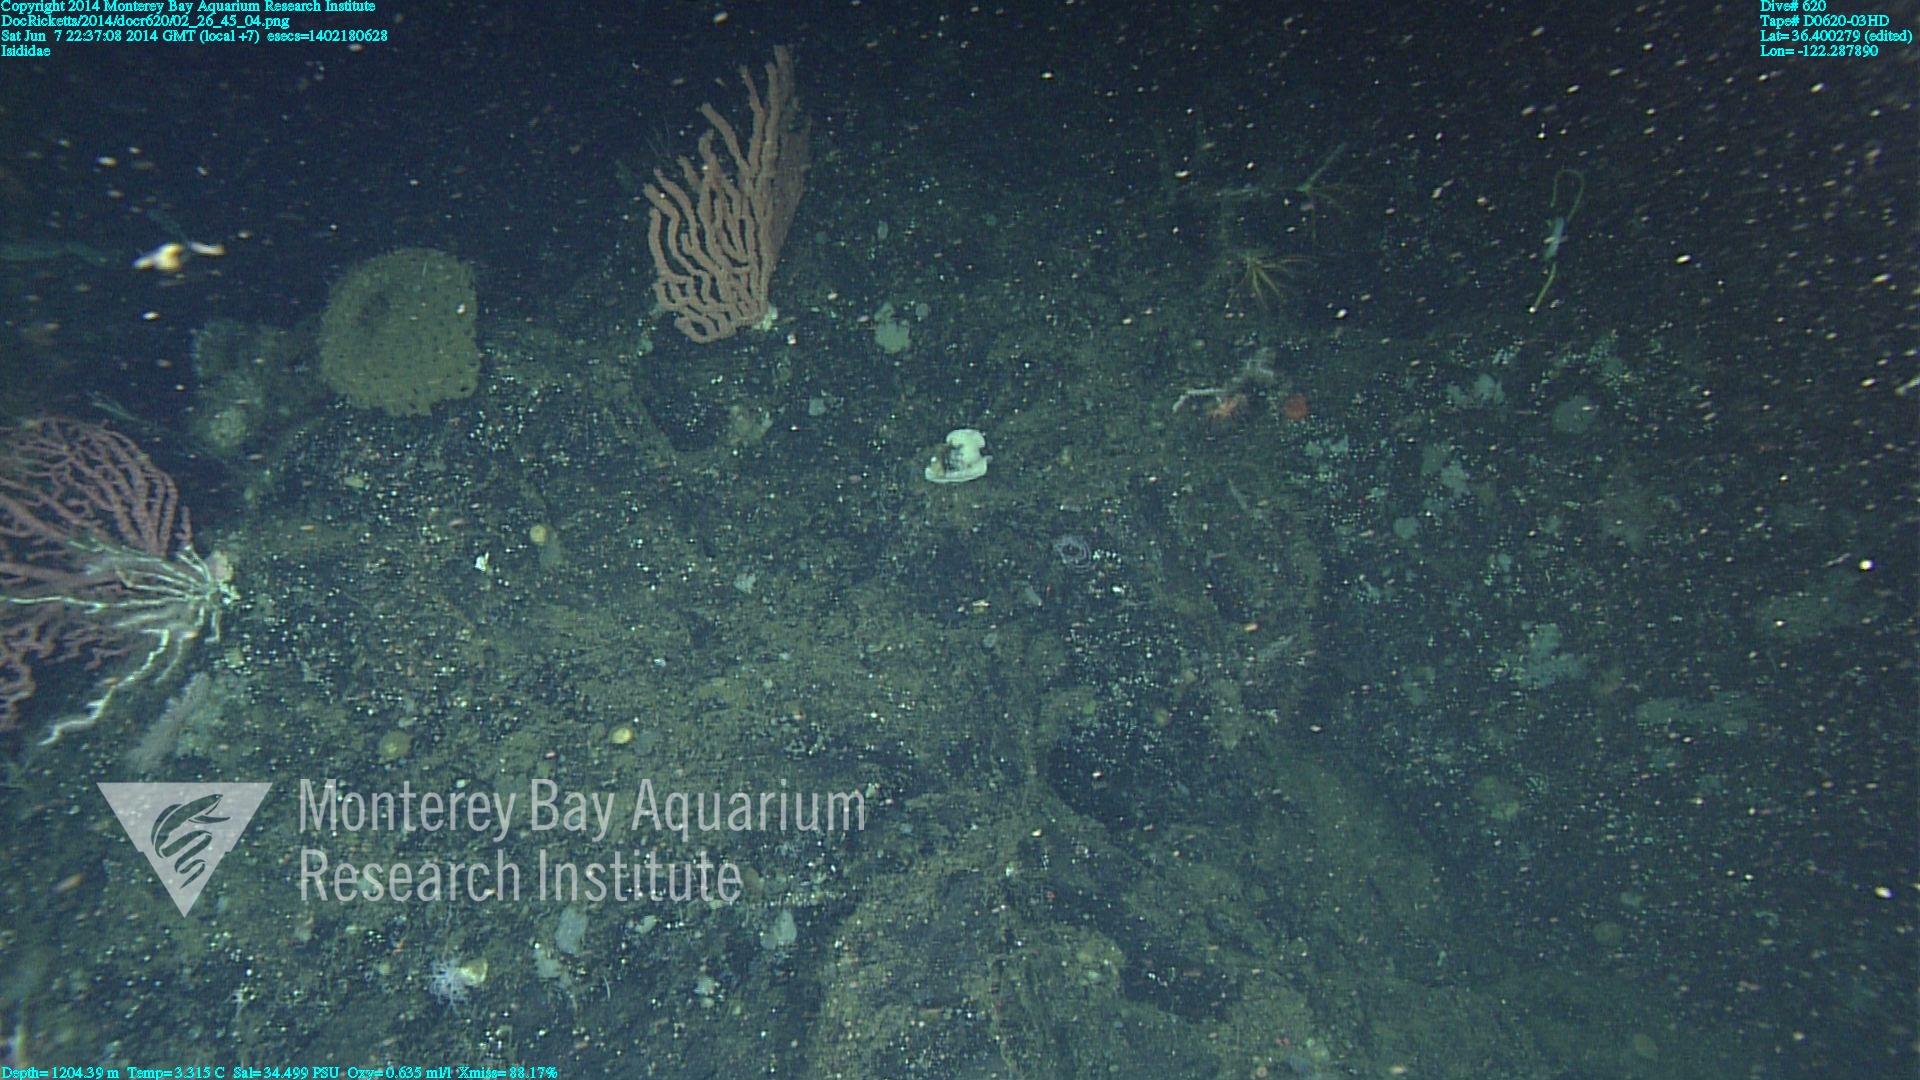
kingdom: Animalia
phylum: Cnidaria
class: Anthozoa
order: Scleralcyonacea
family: Keratoisididae
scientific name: Keratoisididae
